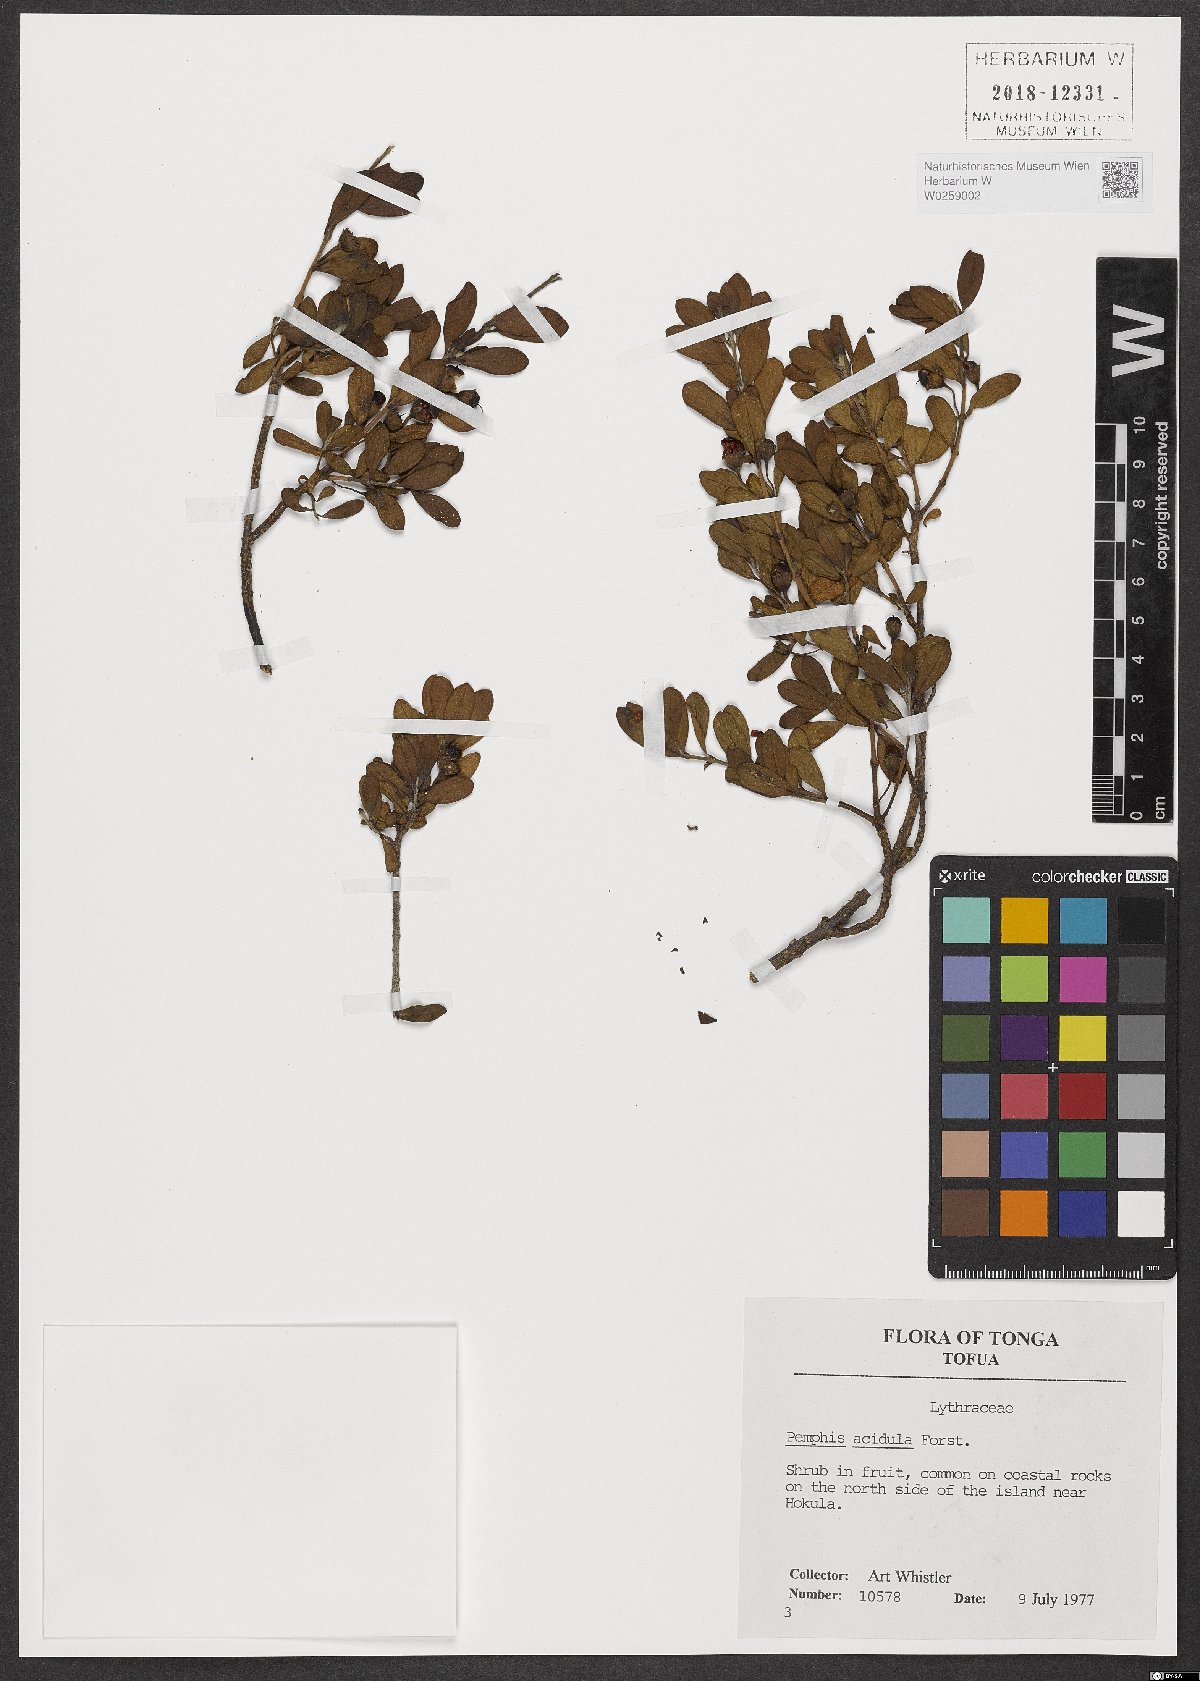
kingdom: Plantae
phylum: Tracheophyta
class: Magnoliopsida
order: Myrtales
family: Lythraceae
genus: Pemphis
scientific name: Pemphis acidula
